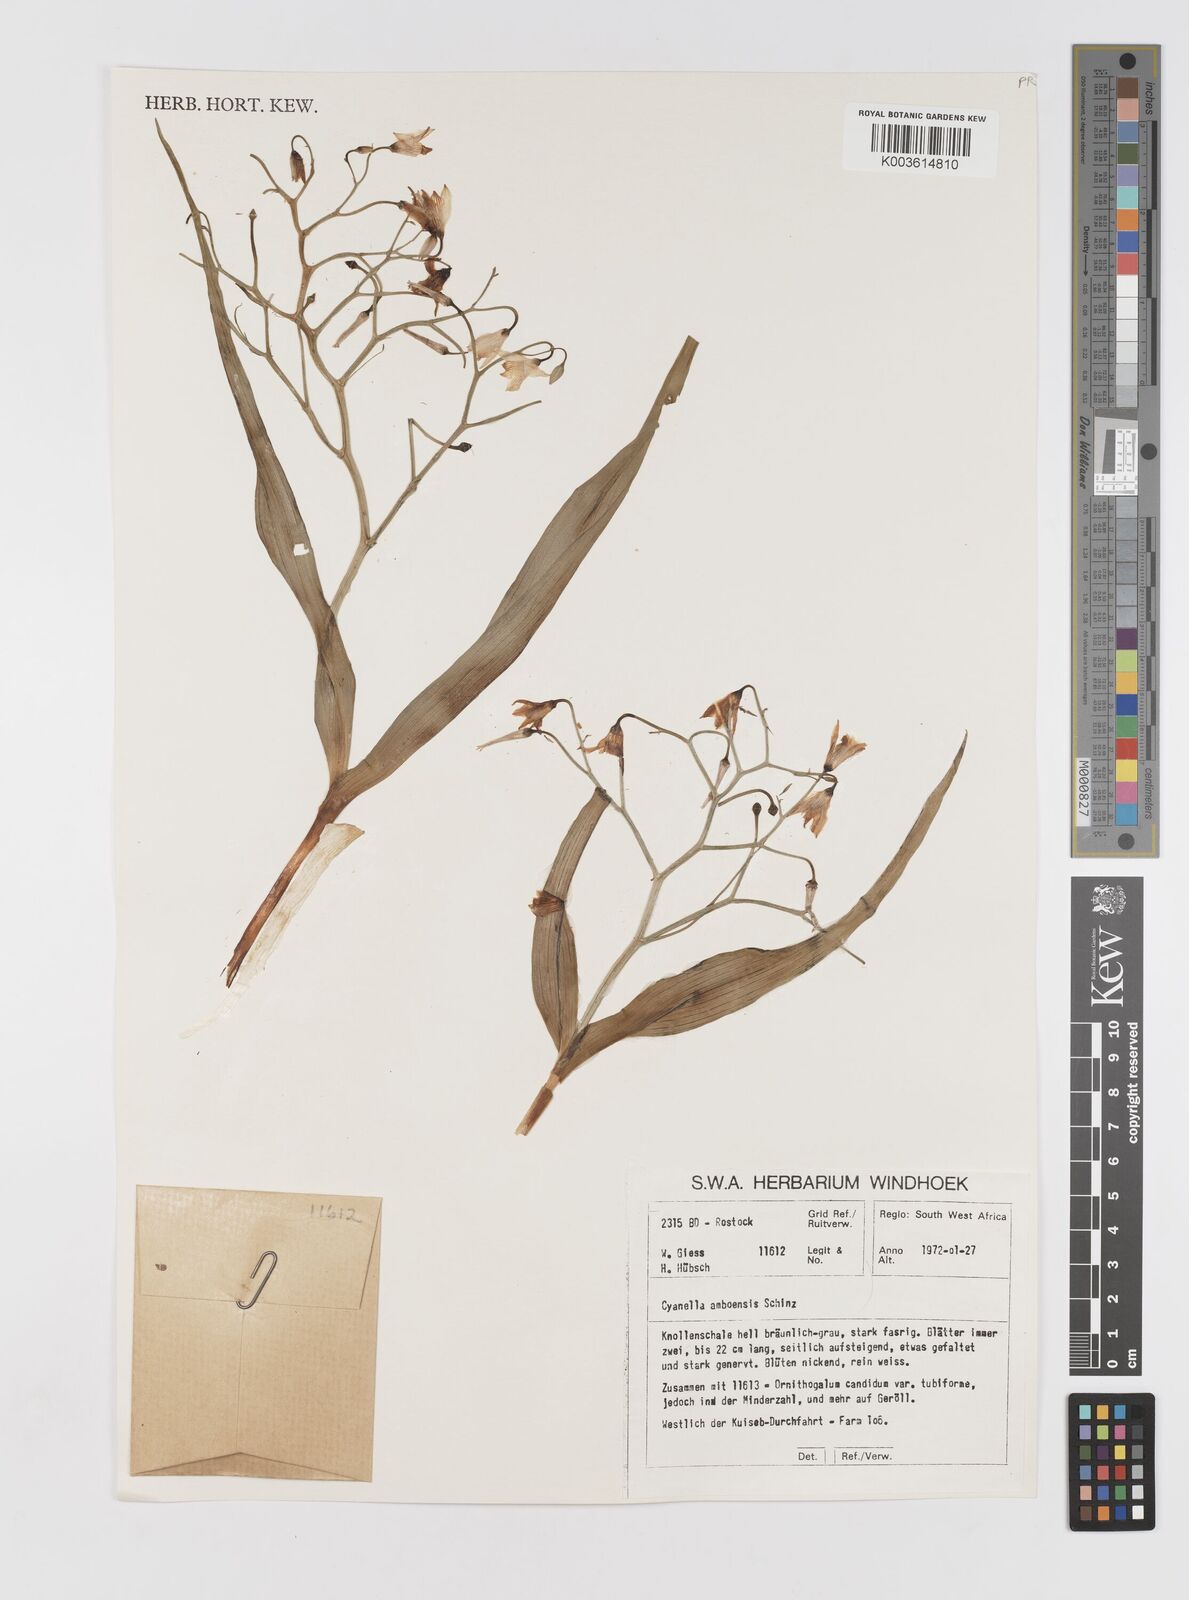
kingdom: Plantae
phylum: Tracheophyta
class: Liliopsida
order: Asparagales
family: Tecophilaeaceae
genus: Eremiolirion
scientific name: Eremiolirion amboense
